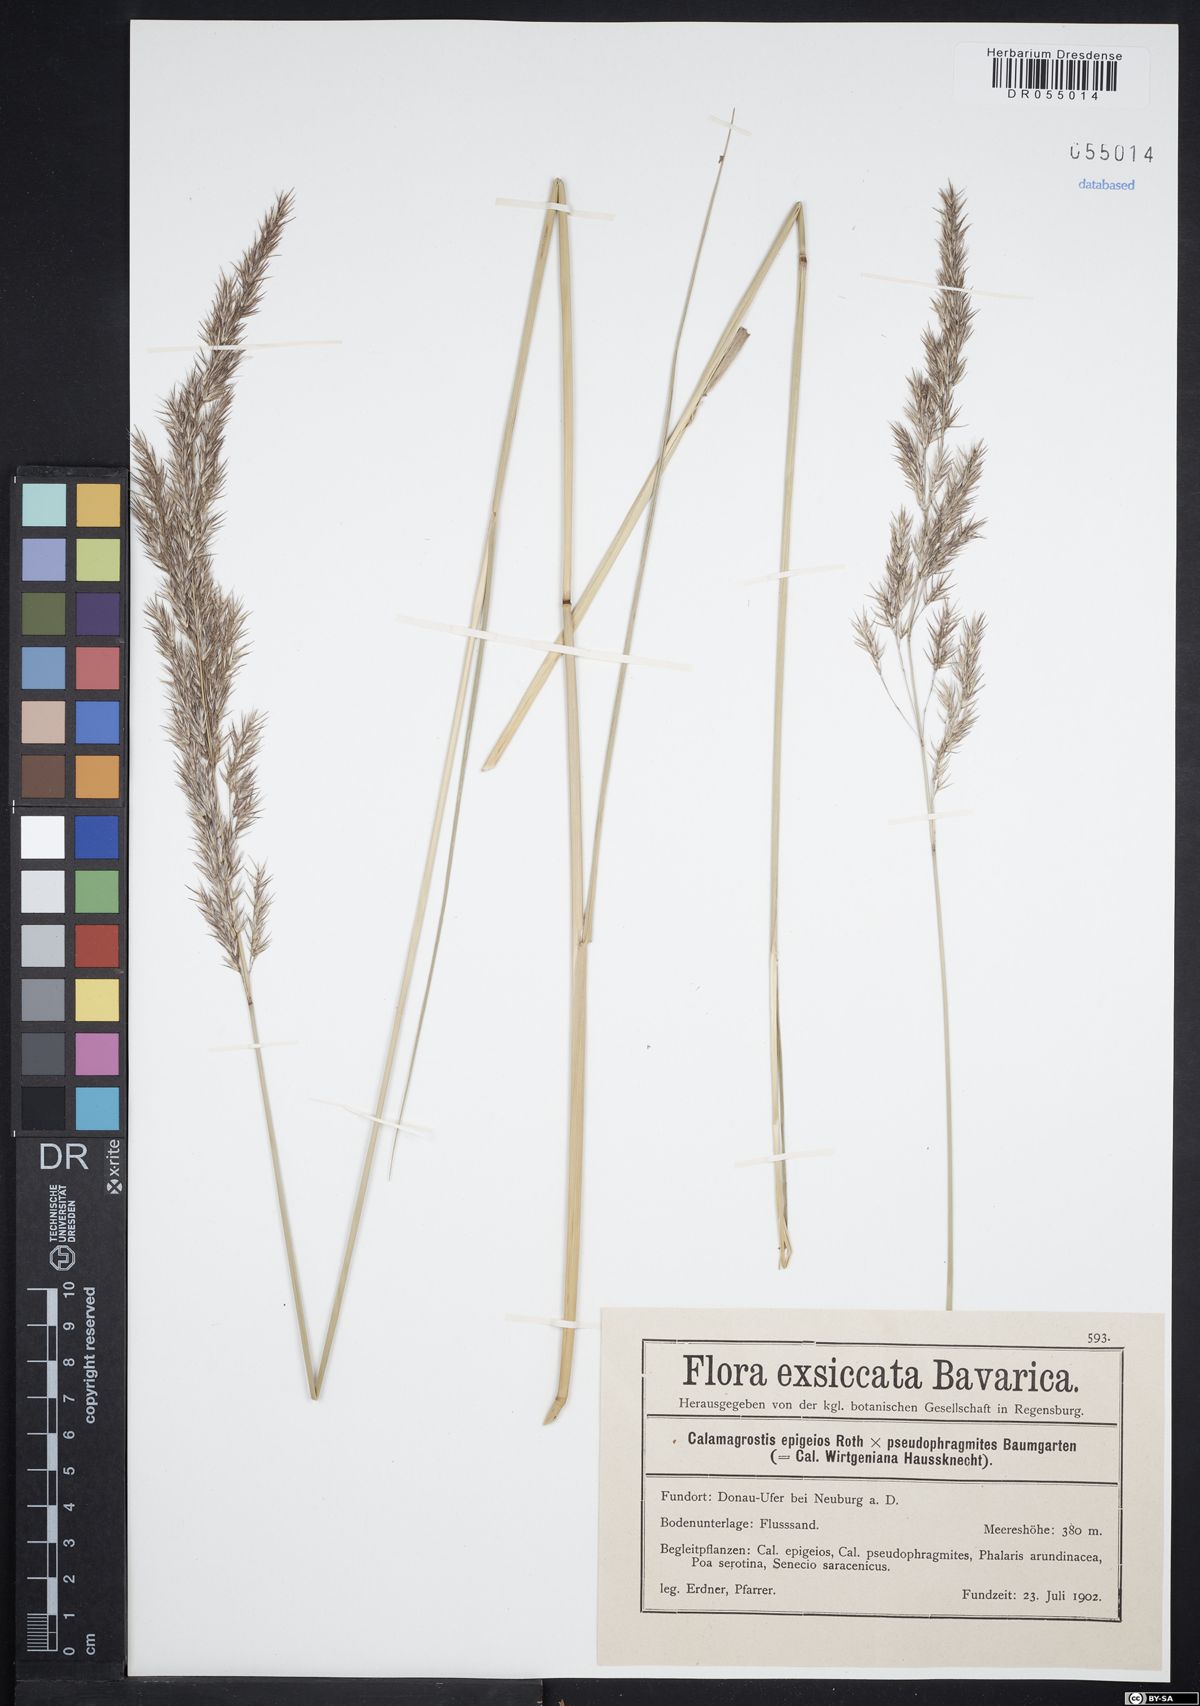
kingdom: Plantae
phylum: Tracheophyta
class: Liliopsida
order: Poales
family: Poaceae
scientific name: Poaceae
